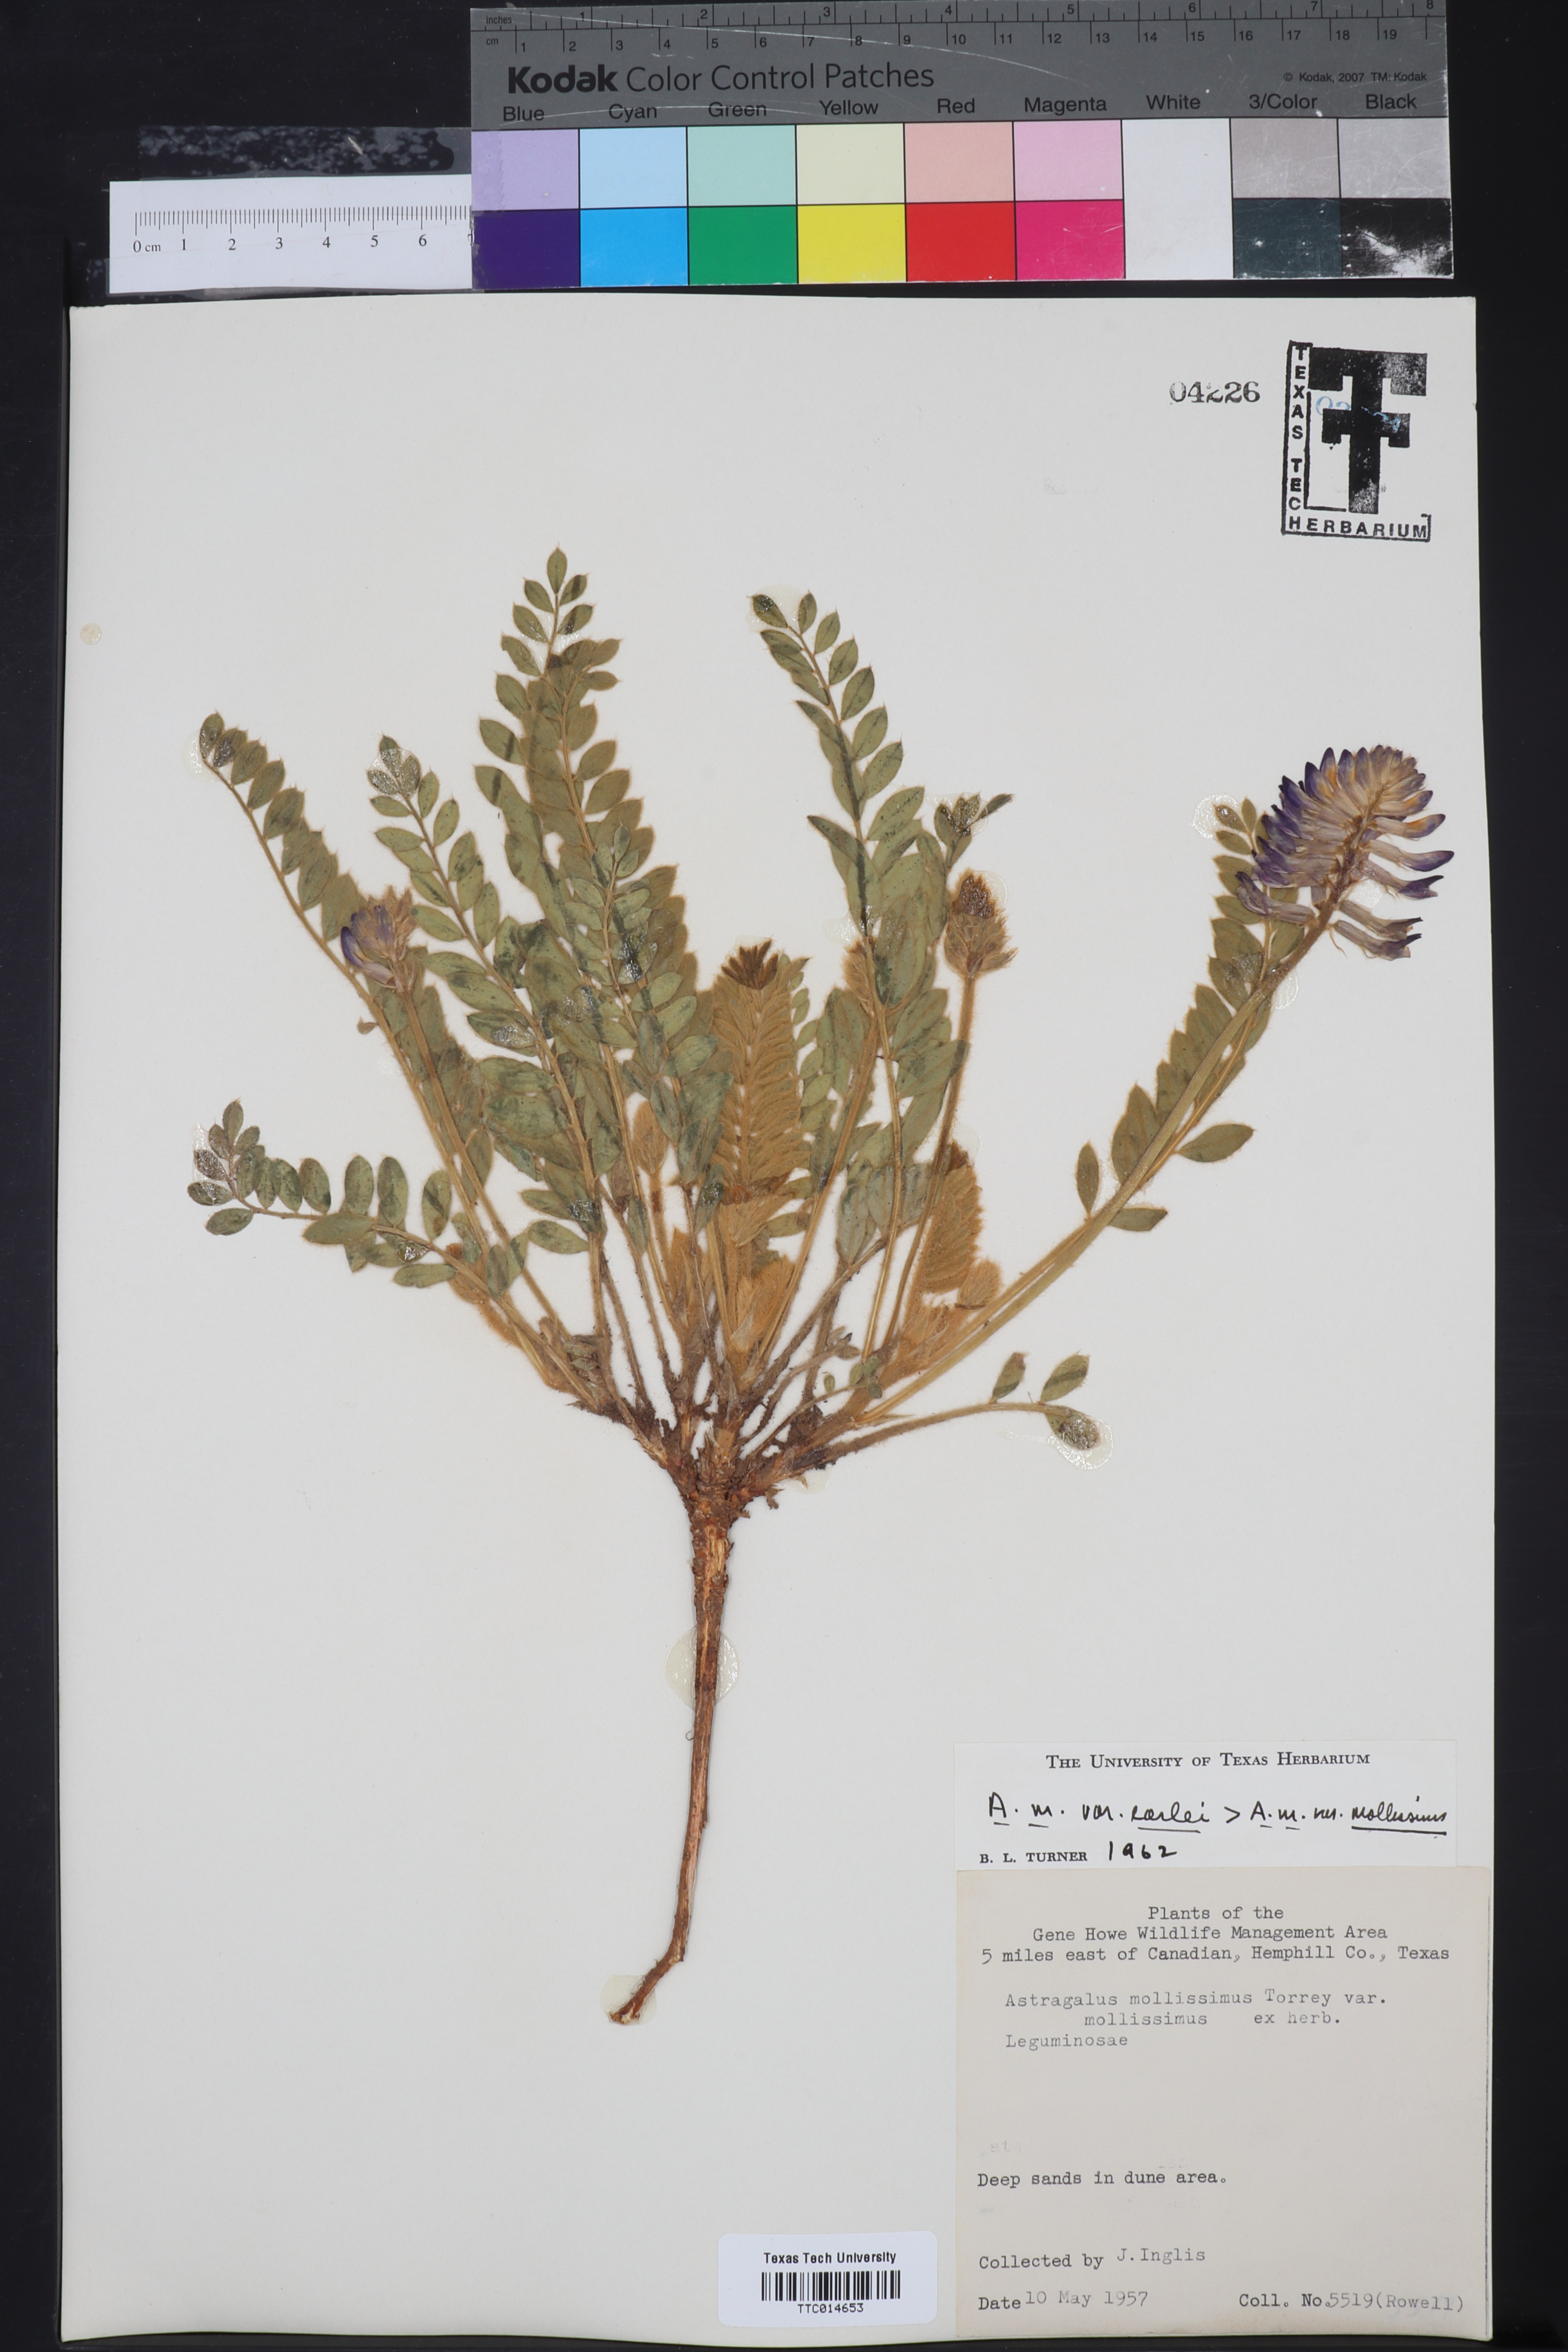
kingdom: Plantae
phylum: Tracheophyta
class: Magnoliopsida
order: Fabales
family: Fabaceae
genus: Astragalus
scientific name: Astragalus mollissimus
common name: Woolly locoweed
